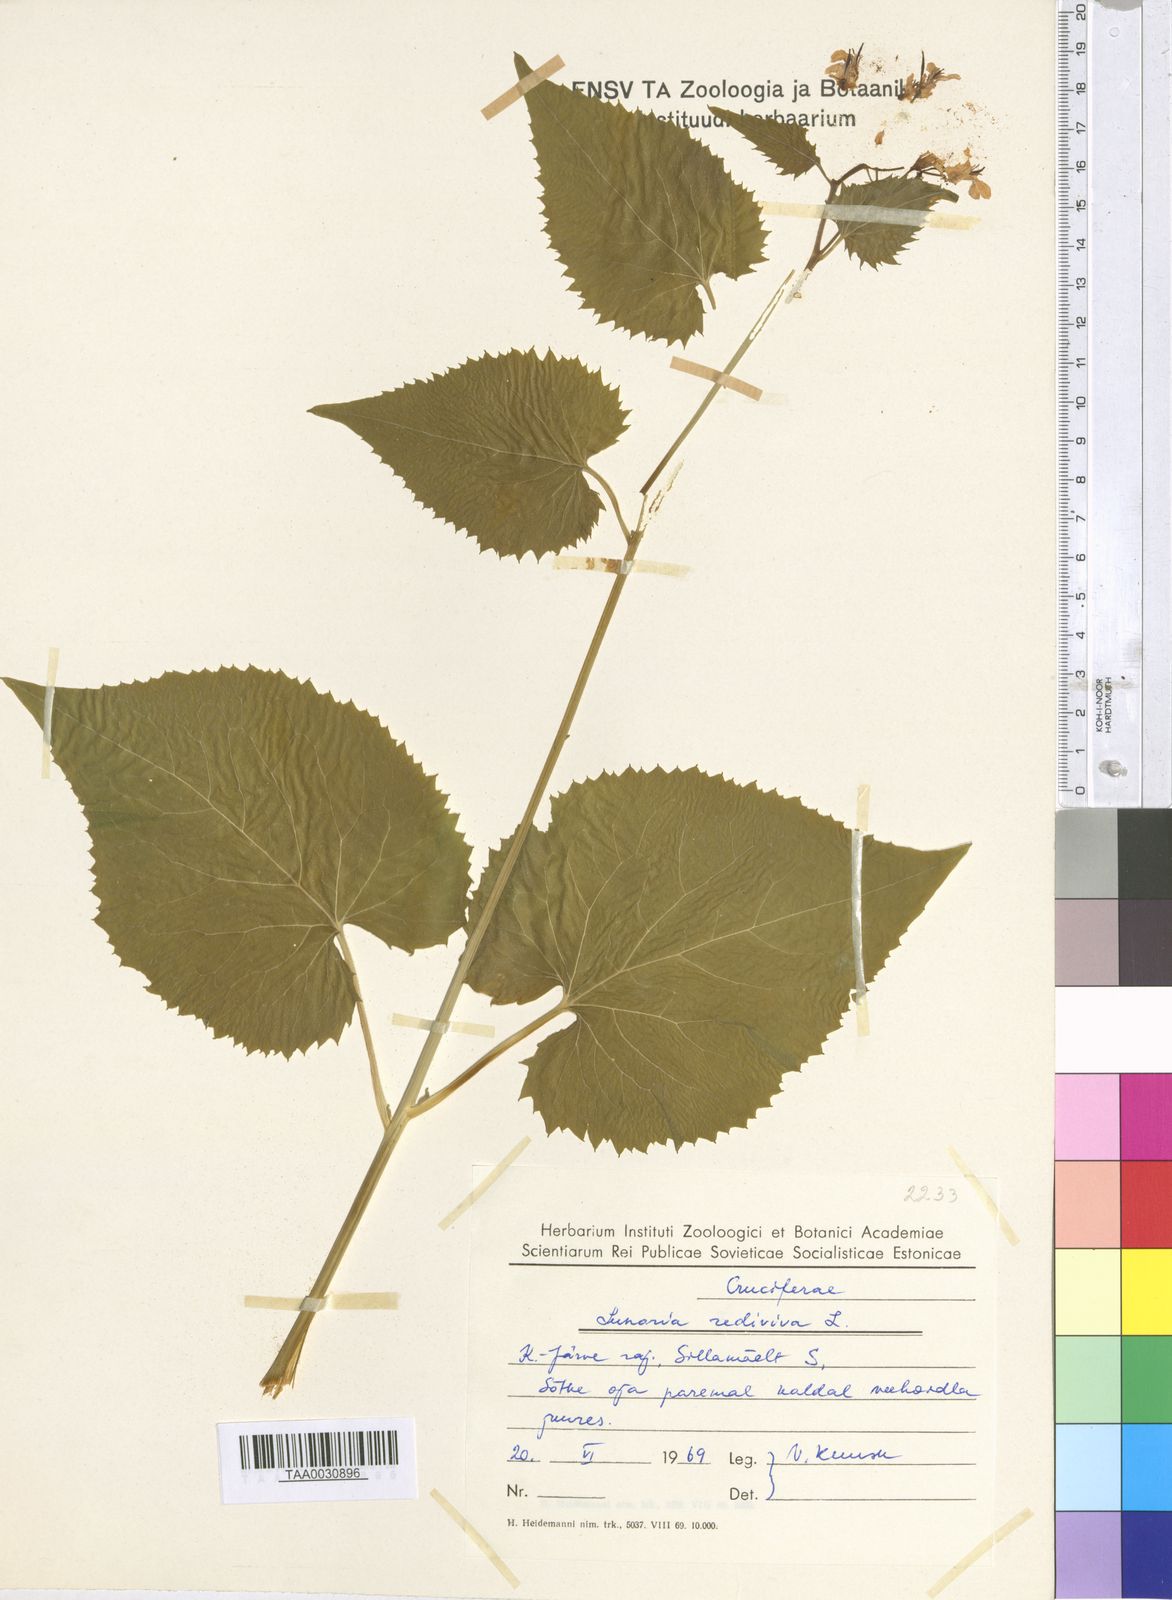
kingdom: Plantae
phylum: Tracheophyta
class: Magnoliopsida
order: Brassicales
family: Brassicaceae
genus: Lunaria
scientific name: Lunaria rediviva
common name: Perennial honesty
